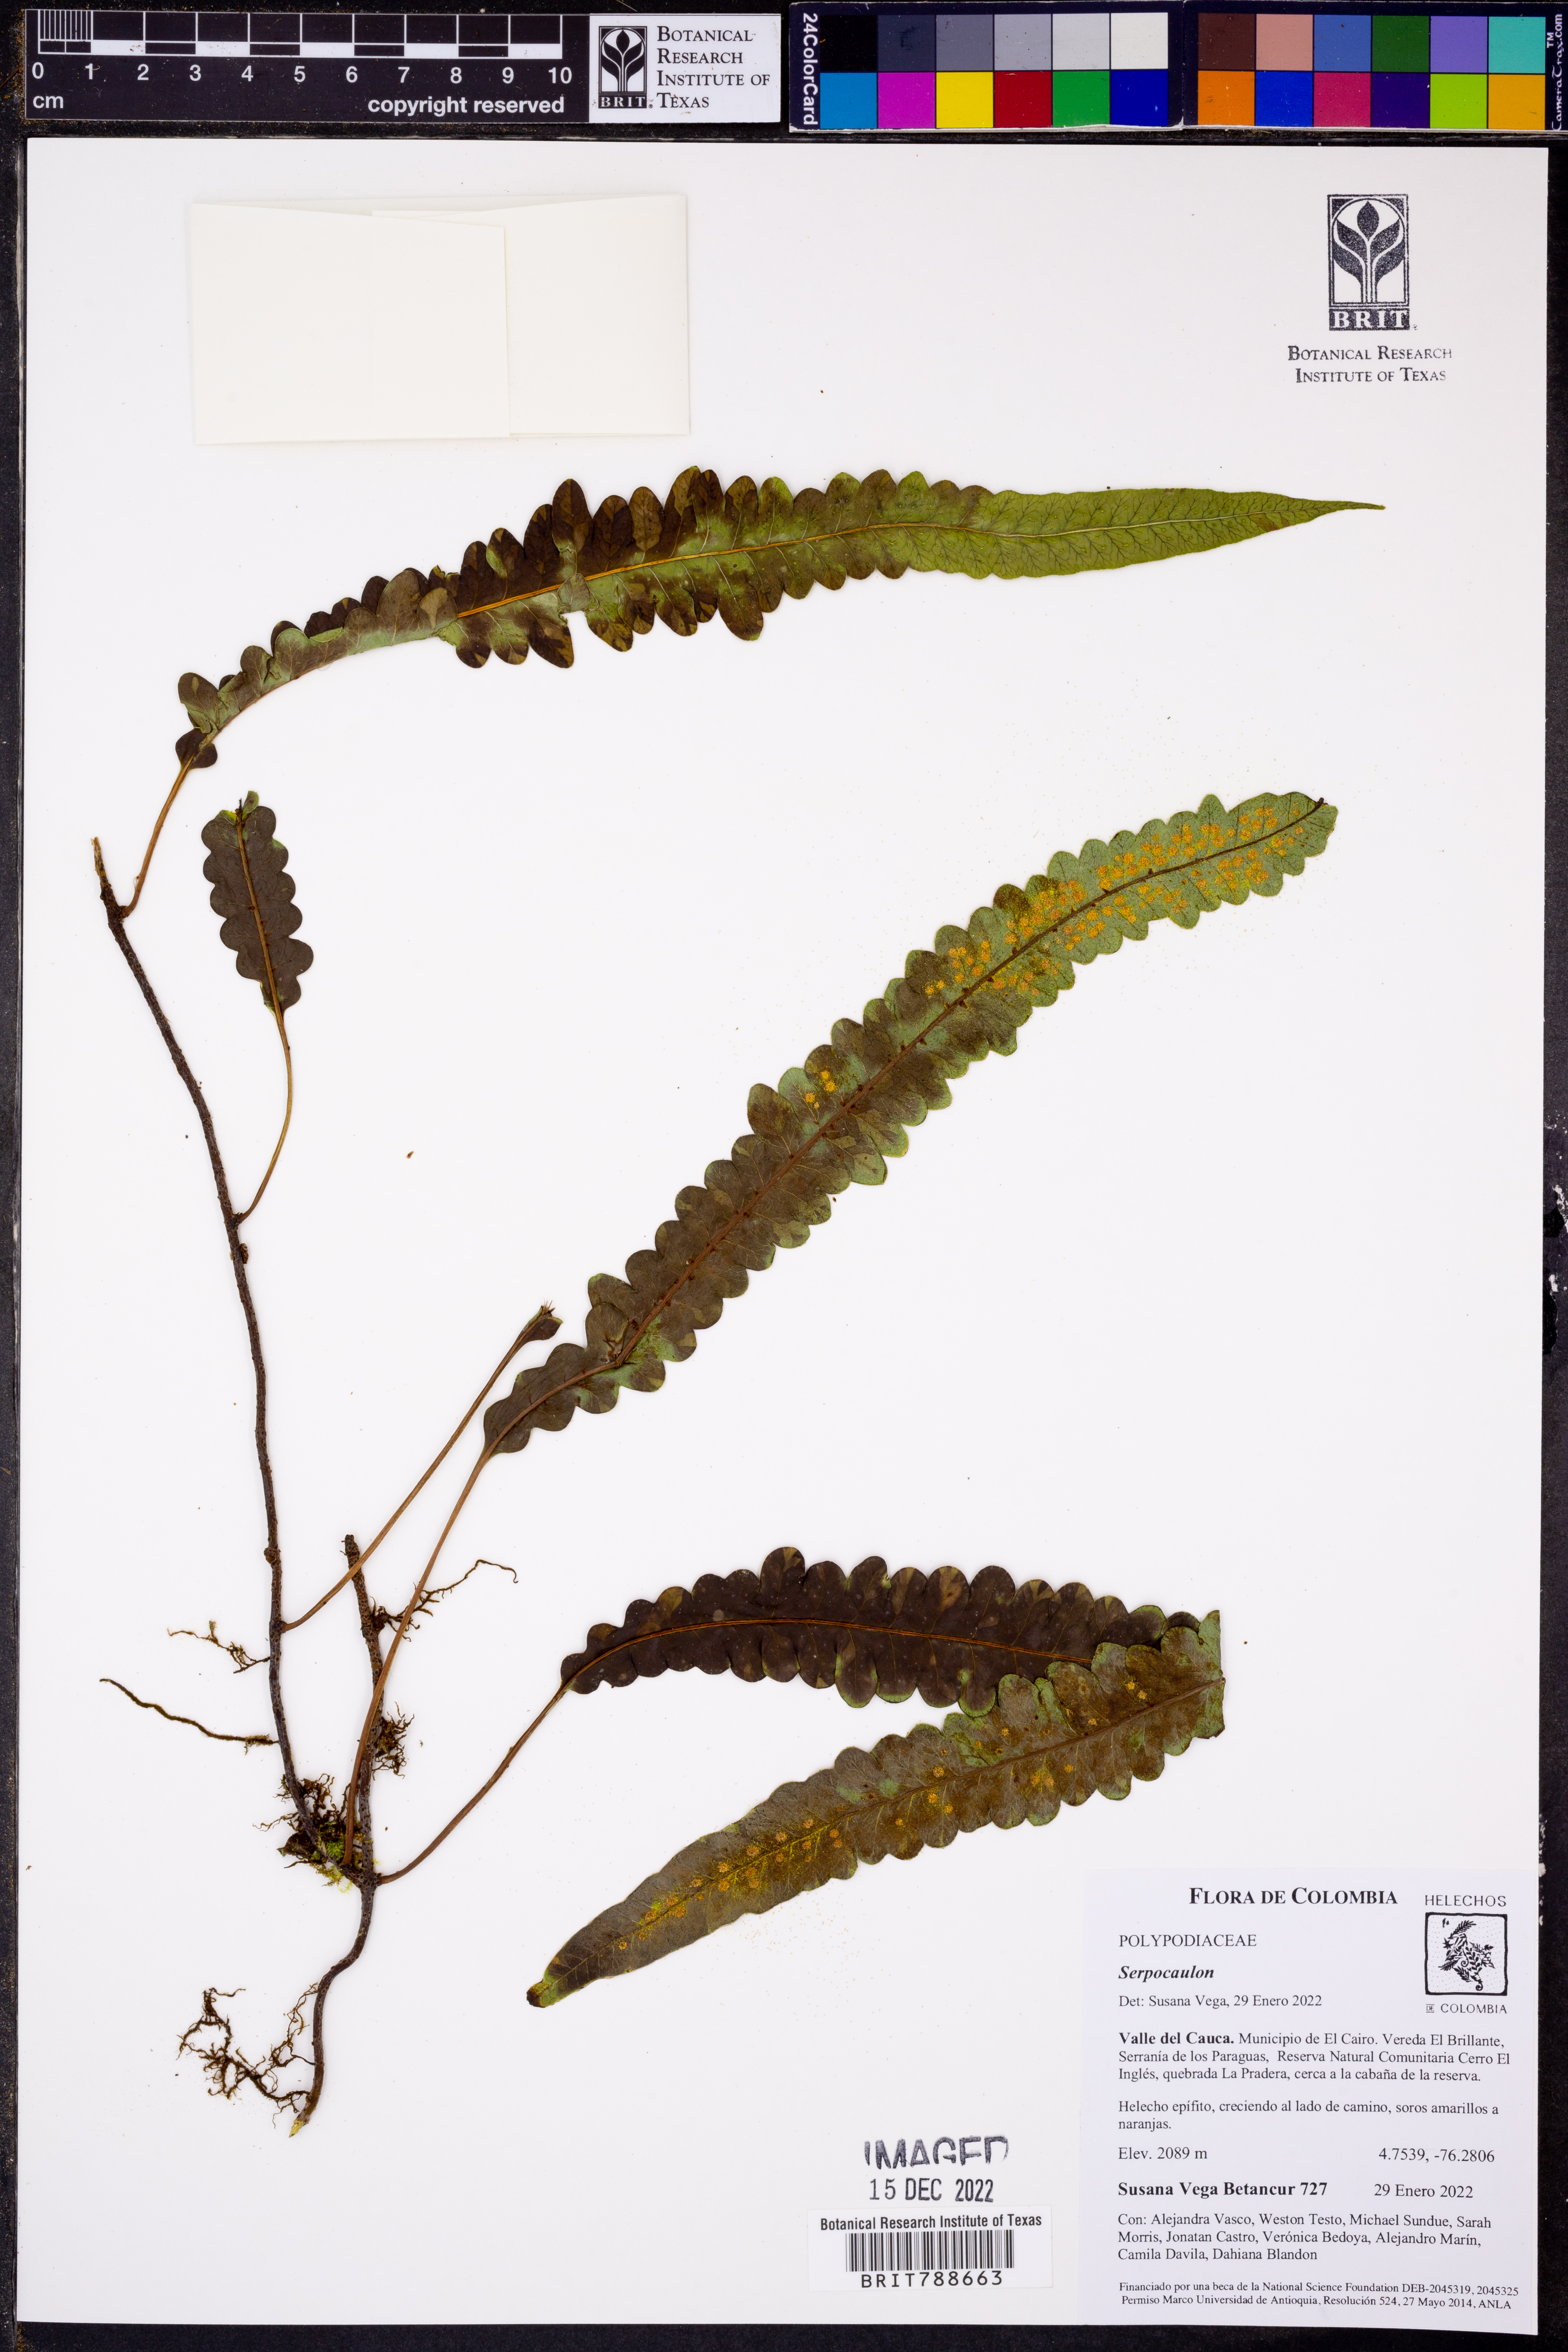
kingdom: Plantae
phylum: Tracheophyta
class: Polypodiopsida
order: Polypodiales
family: Polypodiaceae
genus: Serpocaulon
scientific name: Serpocaulon semipinnatifidum
